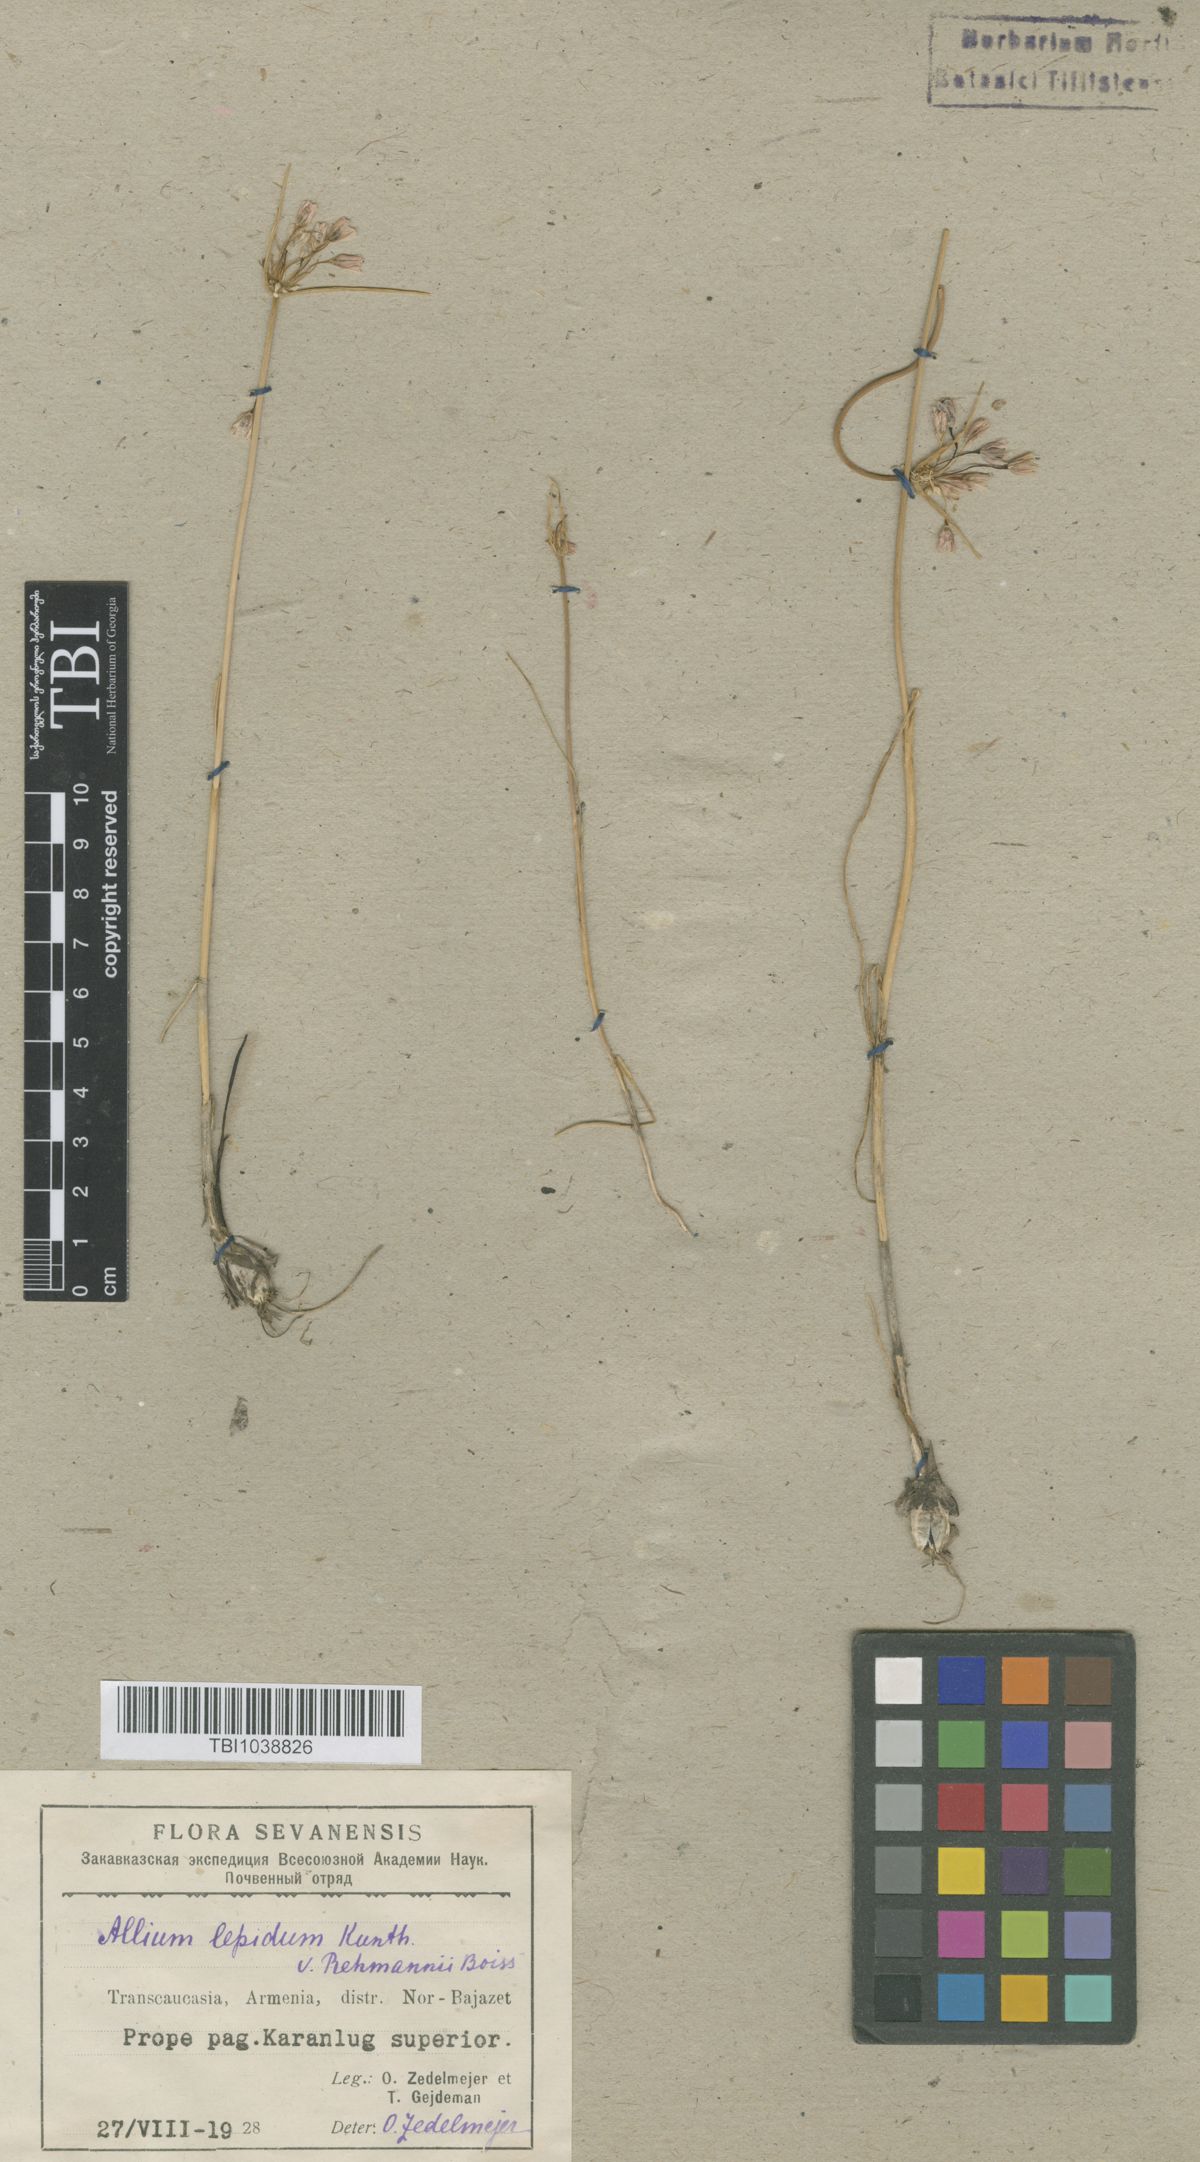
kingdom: Plantae
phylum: Tracheophyta
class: Liliopsida
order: Asparagales
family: Amaryllidaceae
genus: Allium
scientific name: Allium kunthianum
